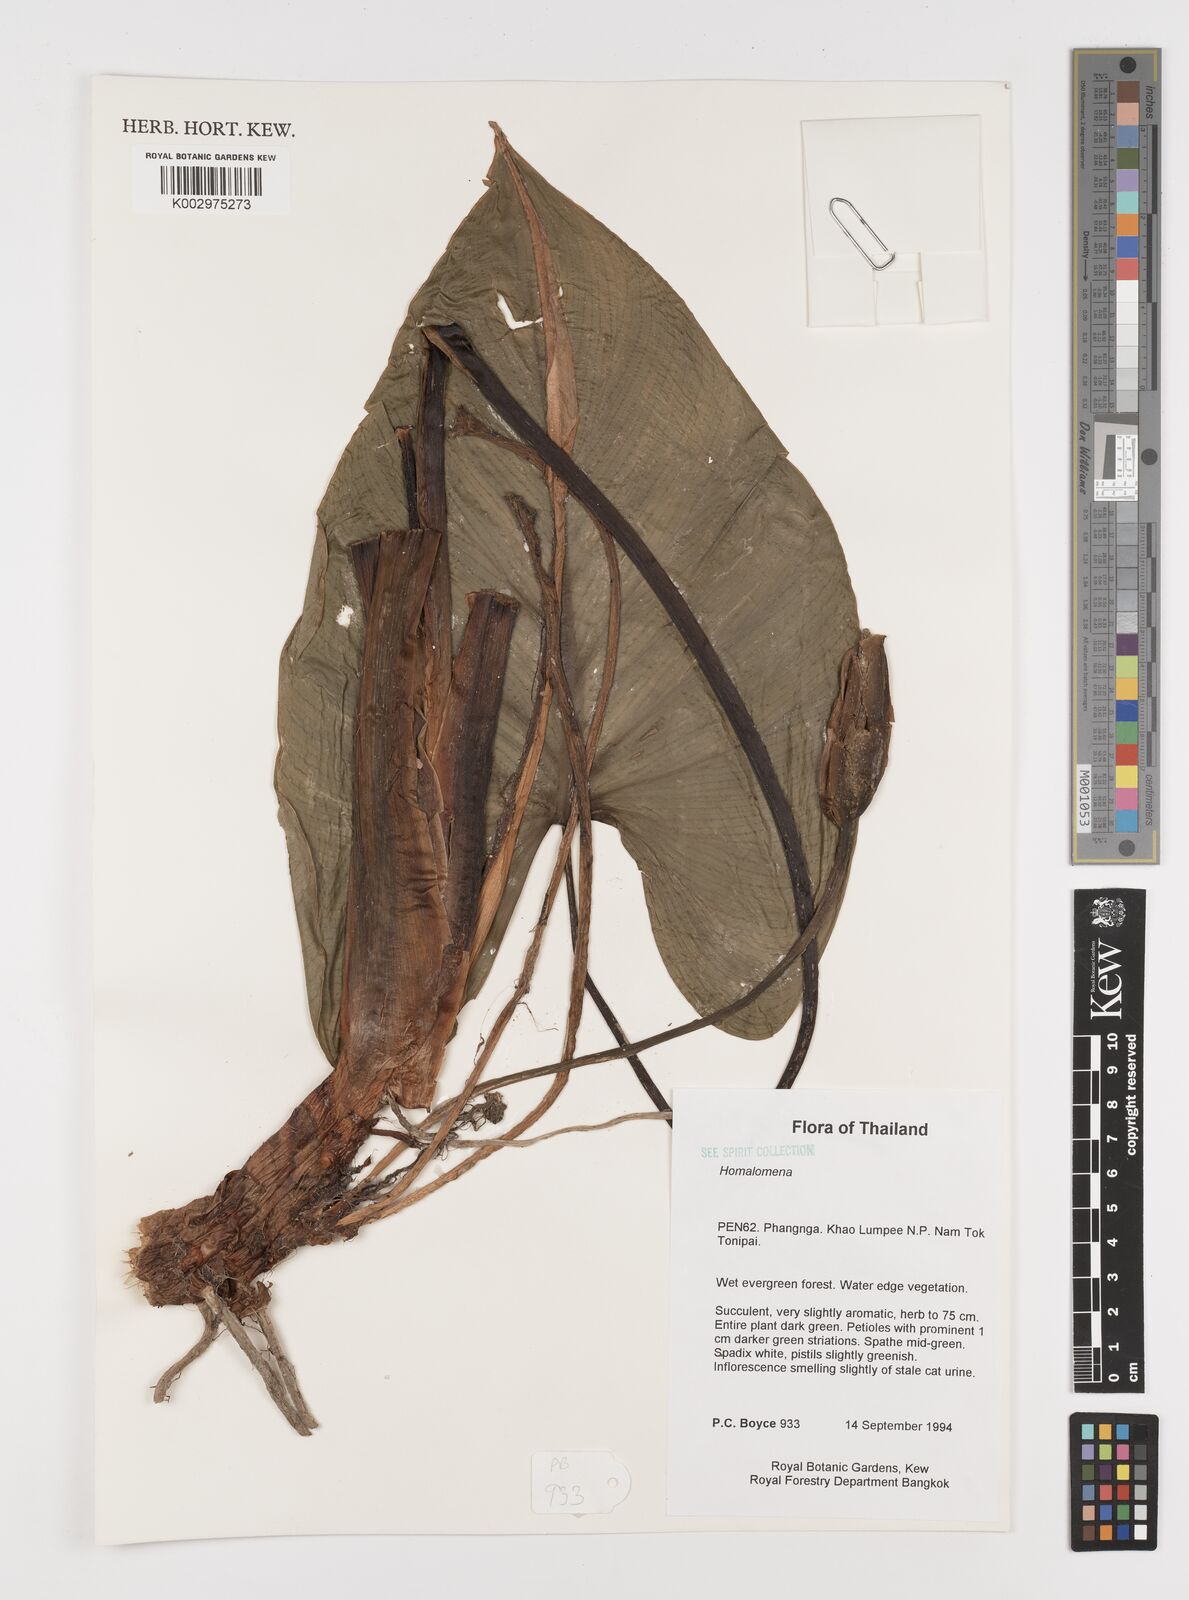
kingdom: Plantae
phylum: Tracheophyta
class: Liliopsida
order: Alismatales
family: Araceae
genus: Homalomena
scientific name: Homalomena
